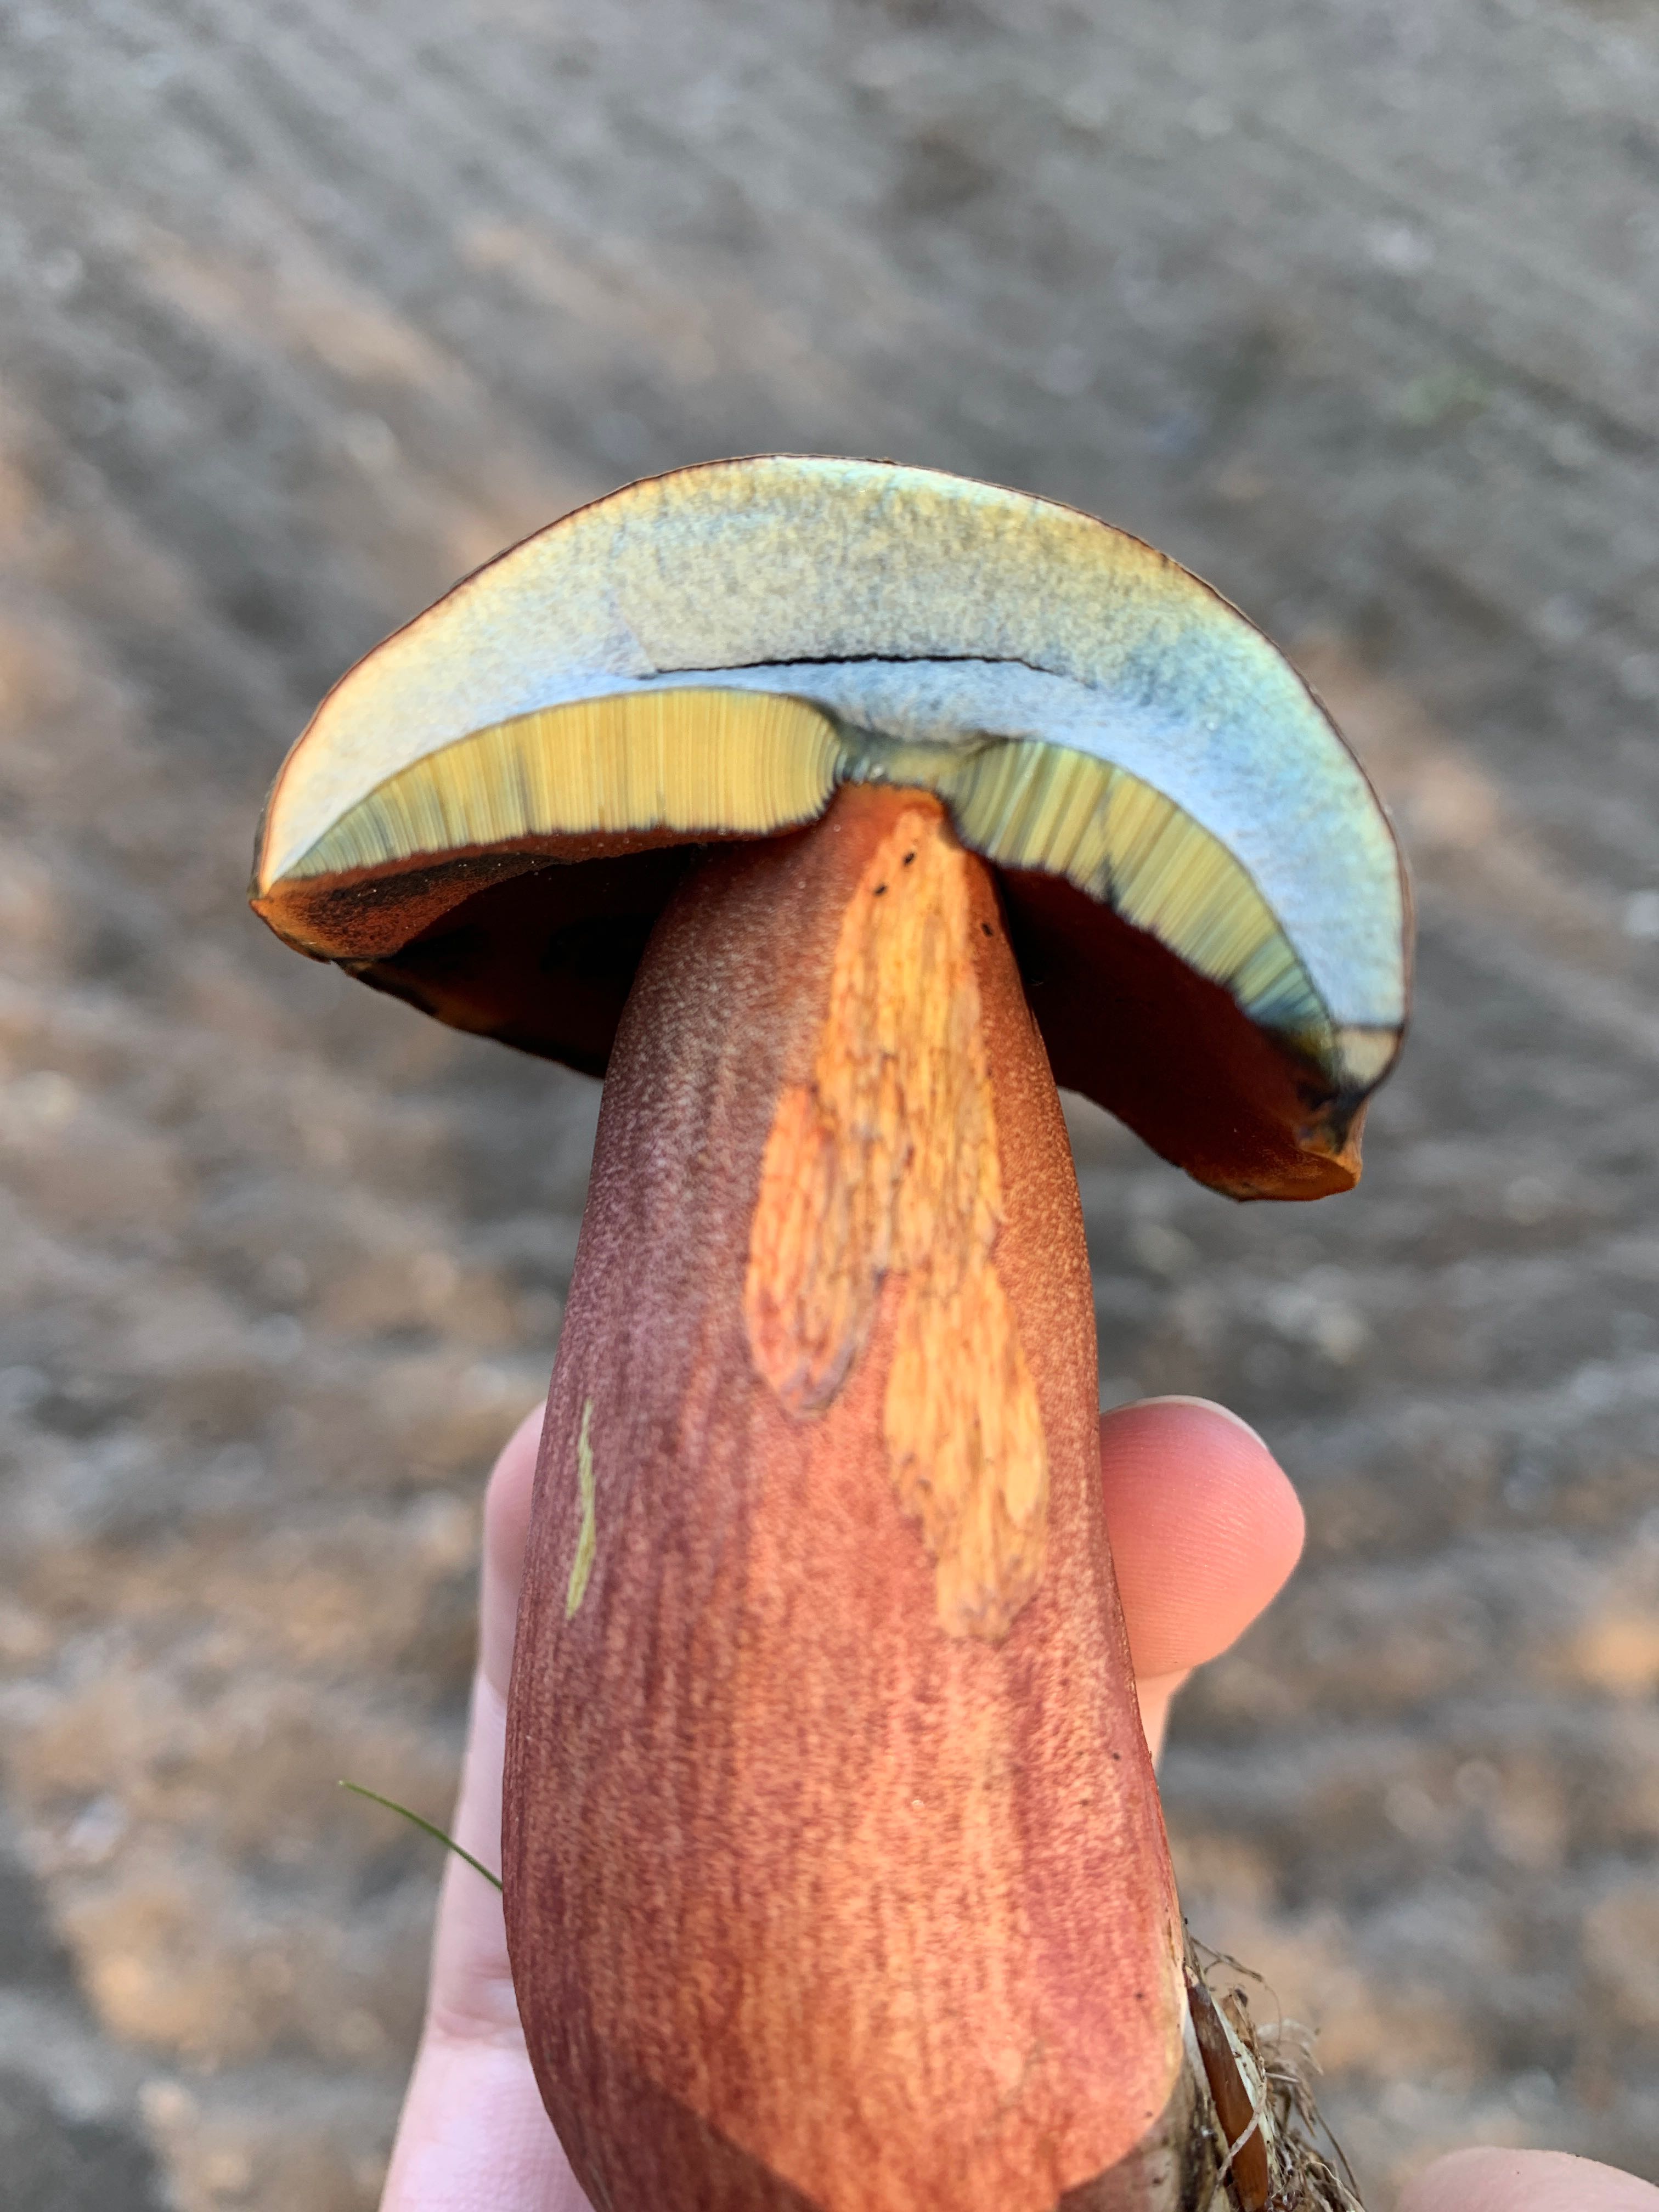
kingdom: Fungi
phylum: Basidiomycota
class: Agaricomycetes
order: Boletales
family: Boletaceae
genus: Neoboletus
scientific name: Neoboletus erythropus
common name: punktstokket indigorørhat
